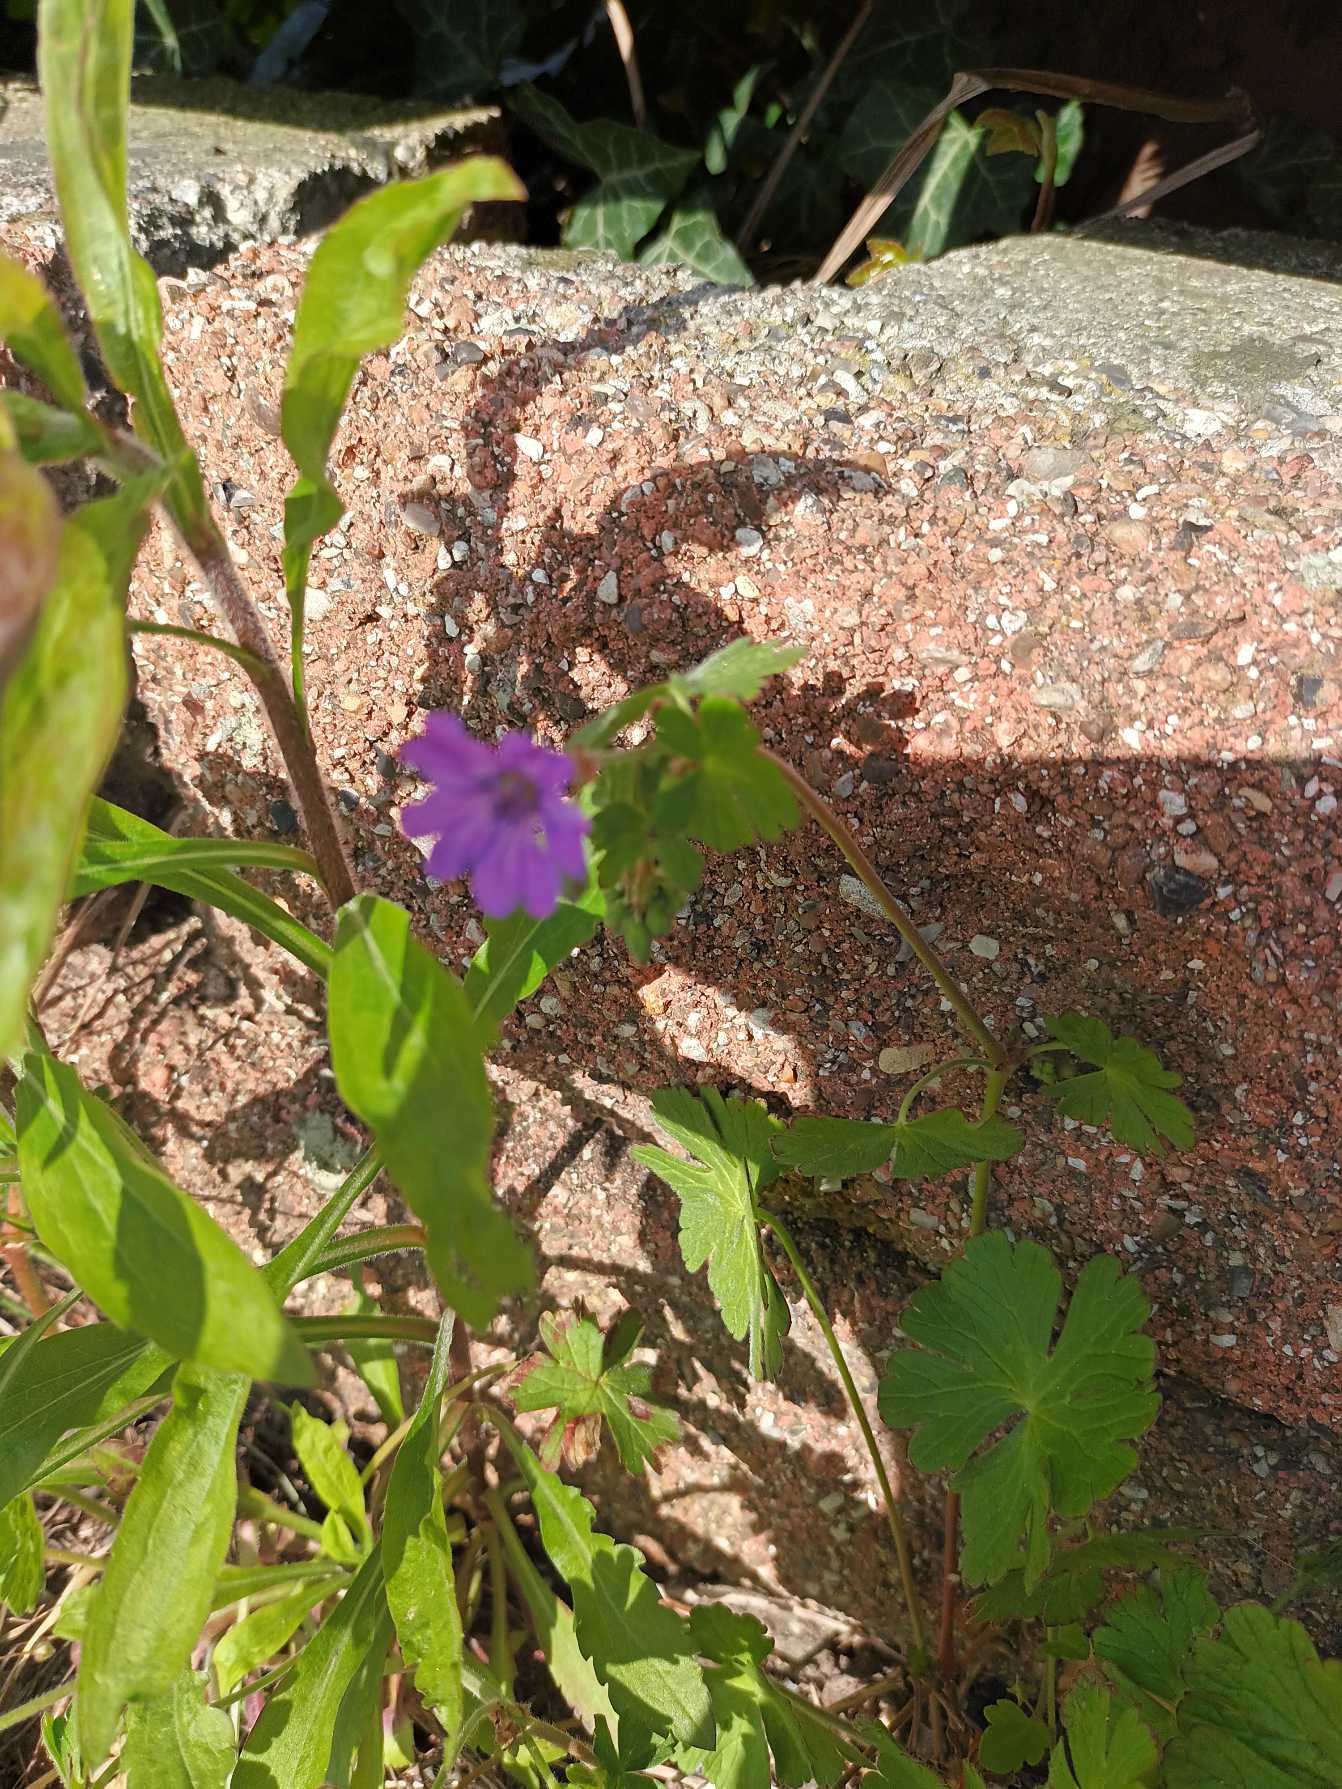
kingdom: Plantae
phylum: Tracheophyta
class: Magnoliopsida
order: Geraniales
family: Geraniaceae
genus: Geranium
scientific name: Geranium pyrenaicum
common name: Pyrenæisk storkenæb
